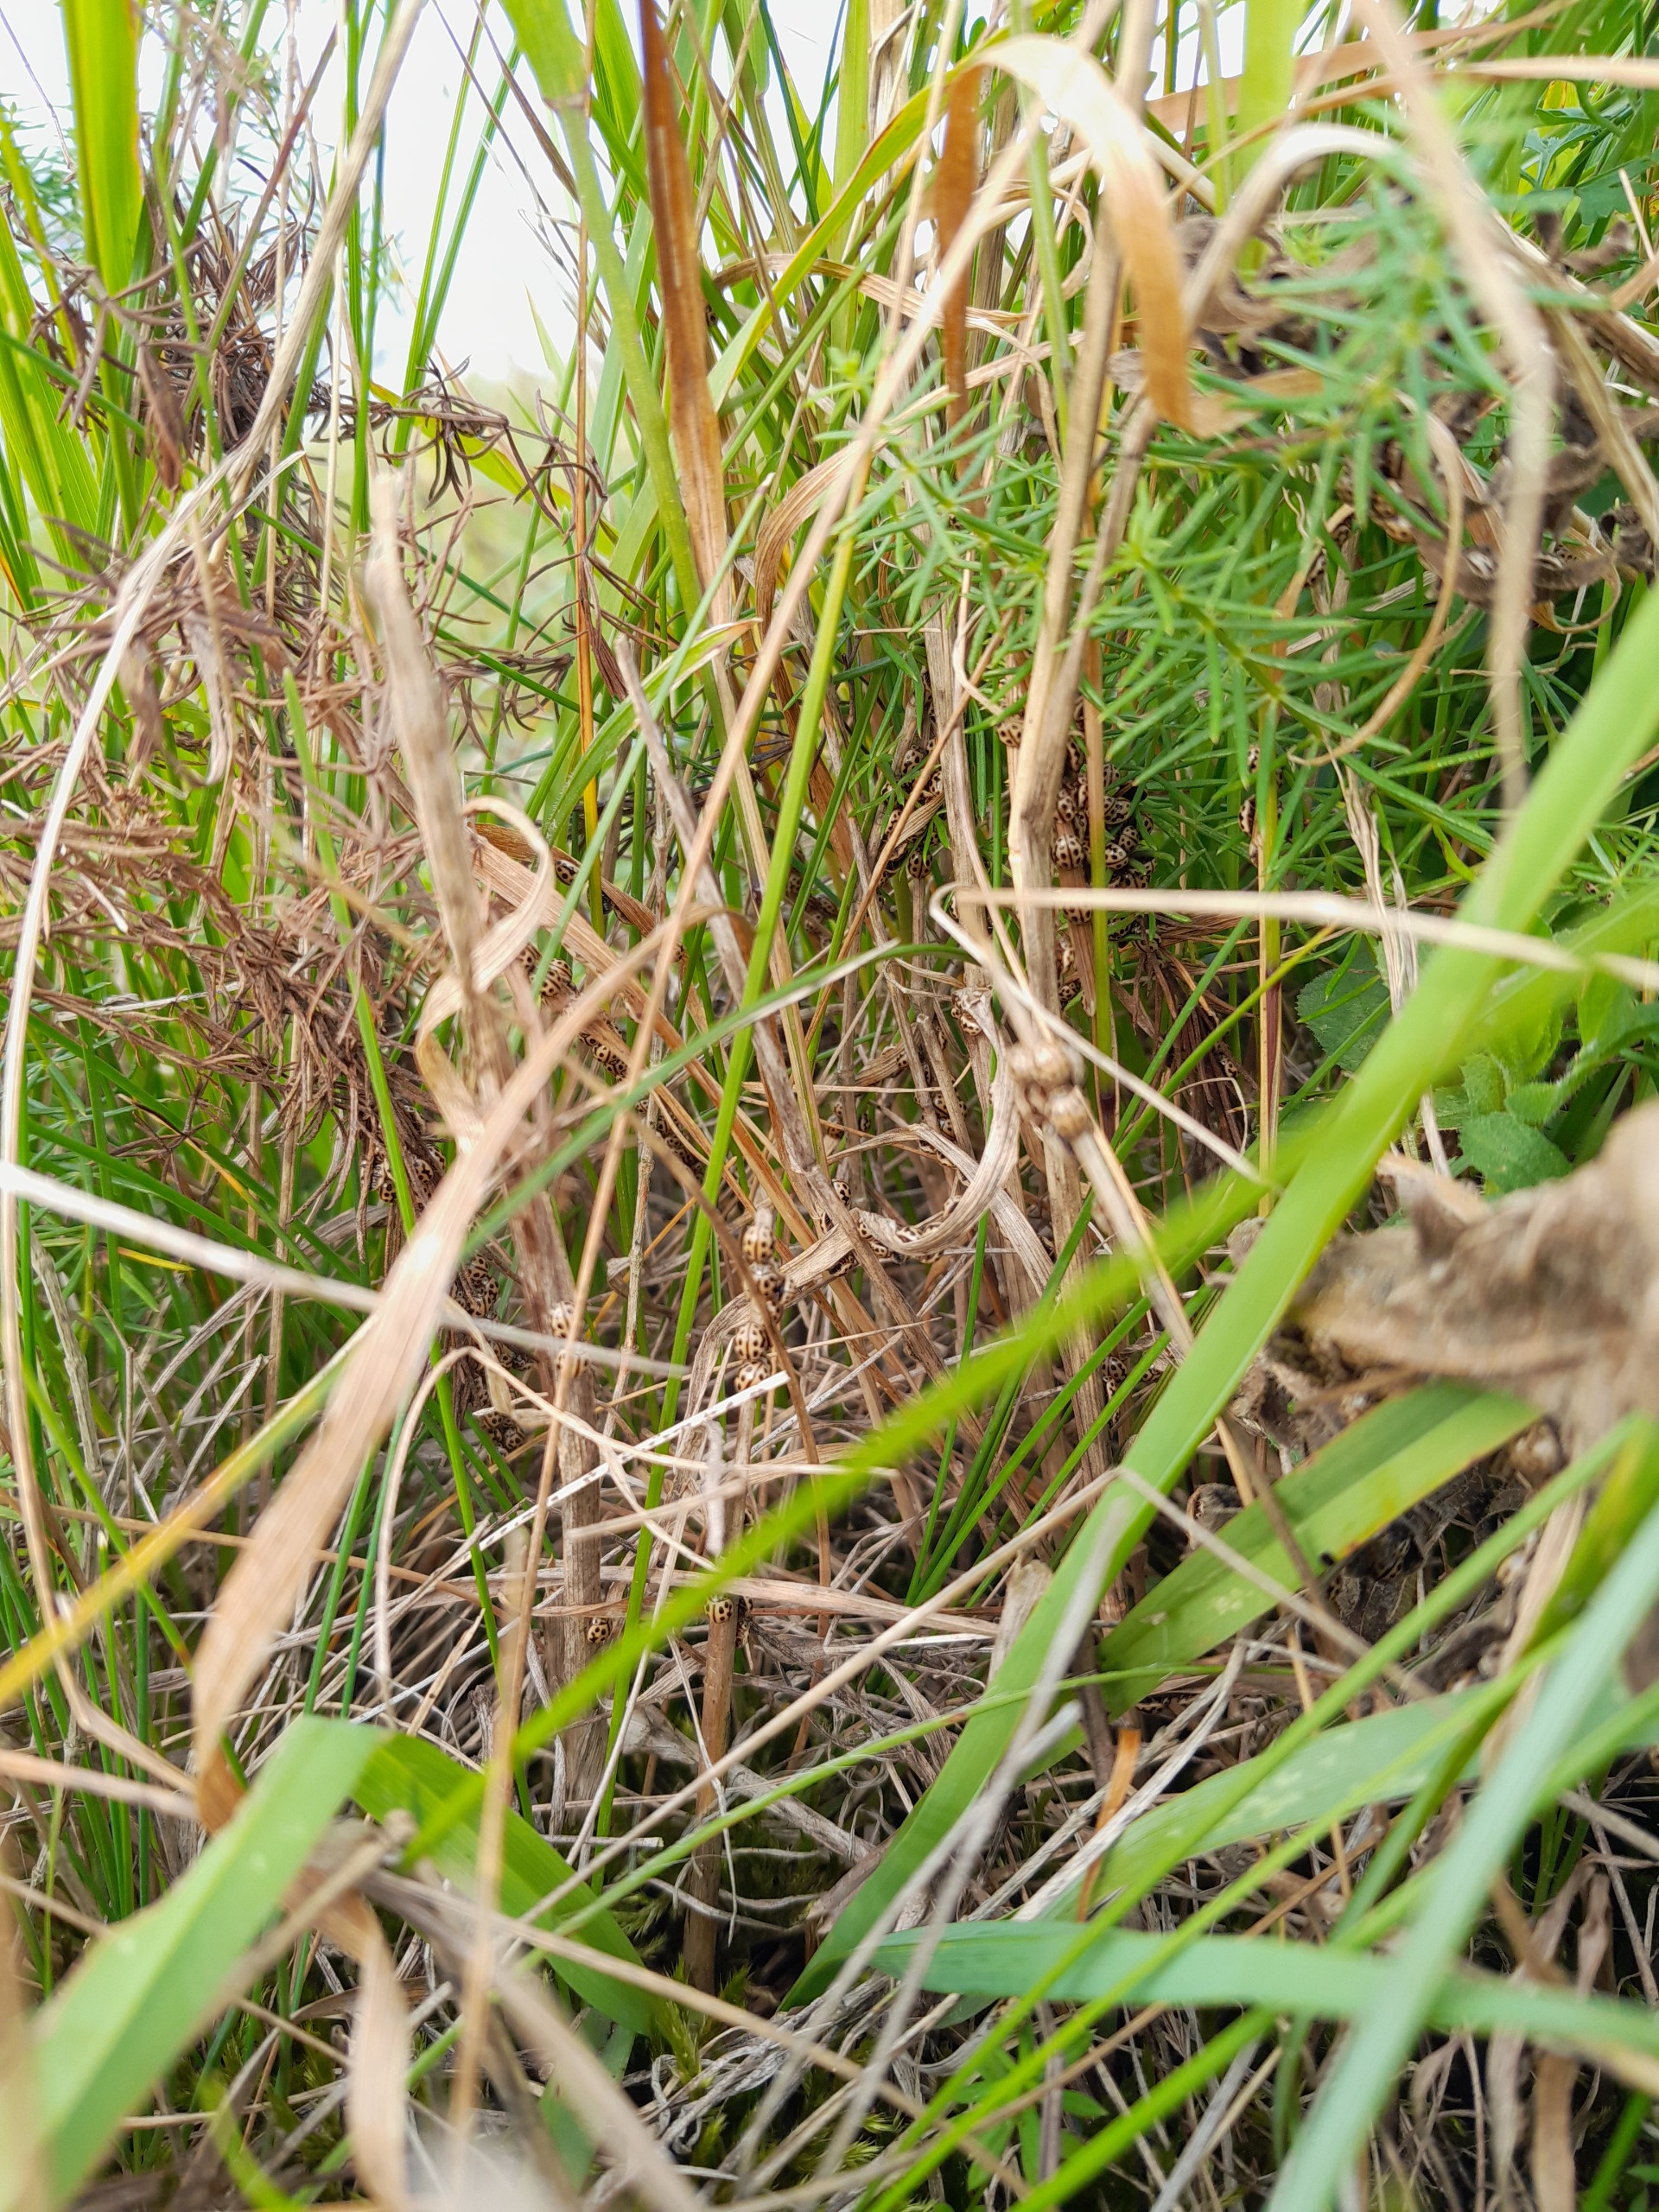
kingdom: Animalia
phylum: Arthropoda
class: Insecta
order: Coleoptera
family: Coccinellidae
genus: Tytthaspis
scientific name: Tytthaspis sedecimpunctata
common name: Sekstenprikket mariehøne
